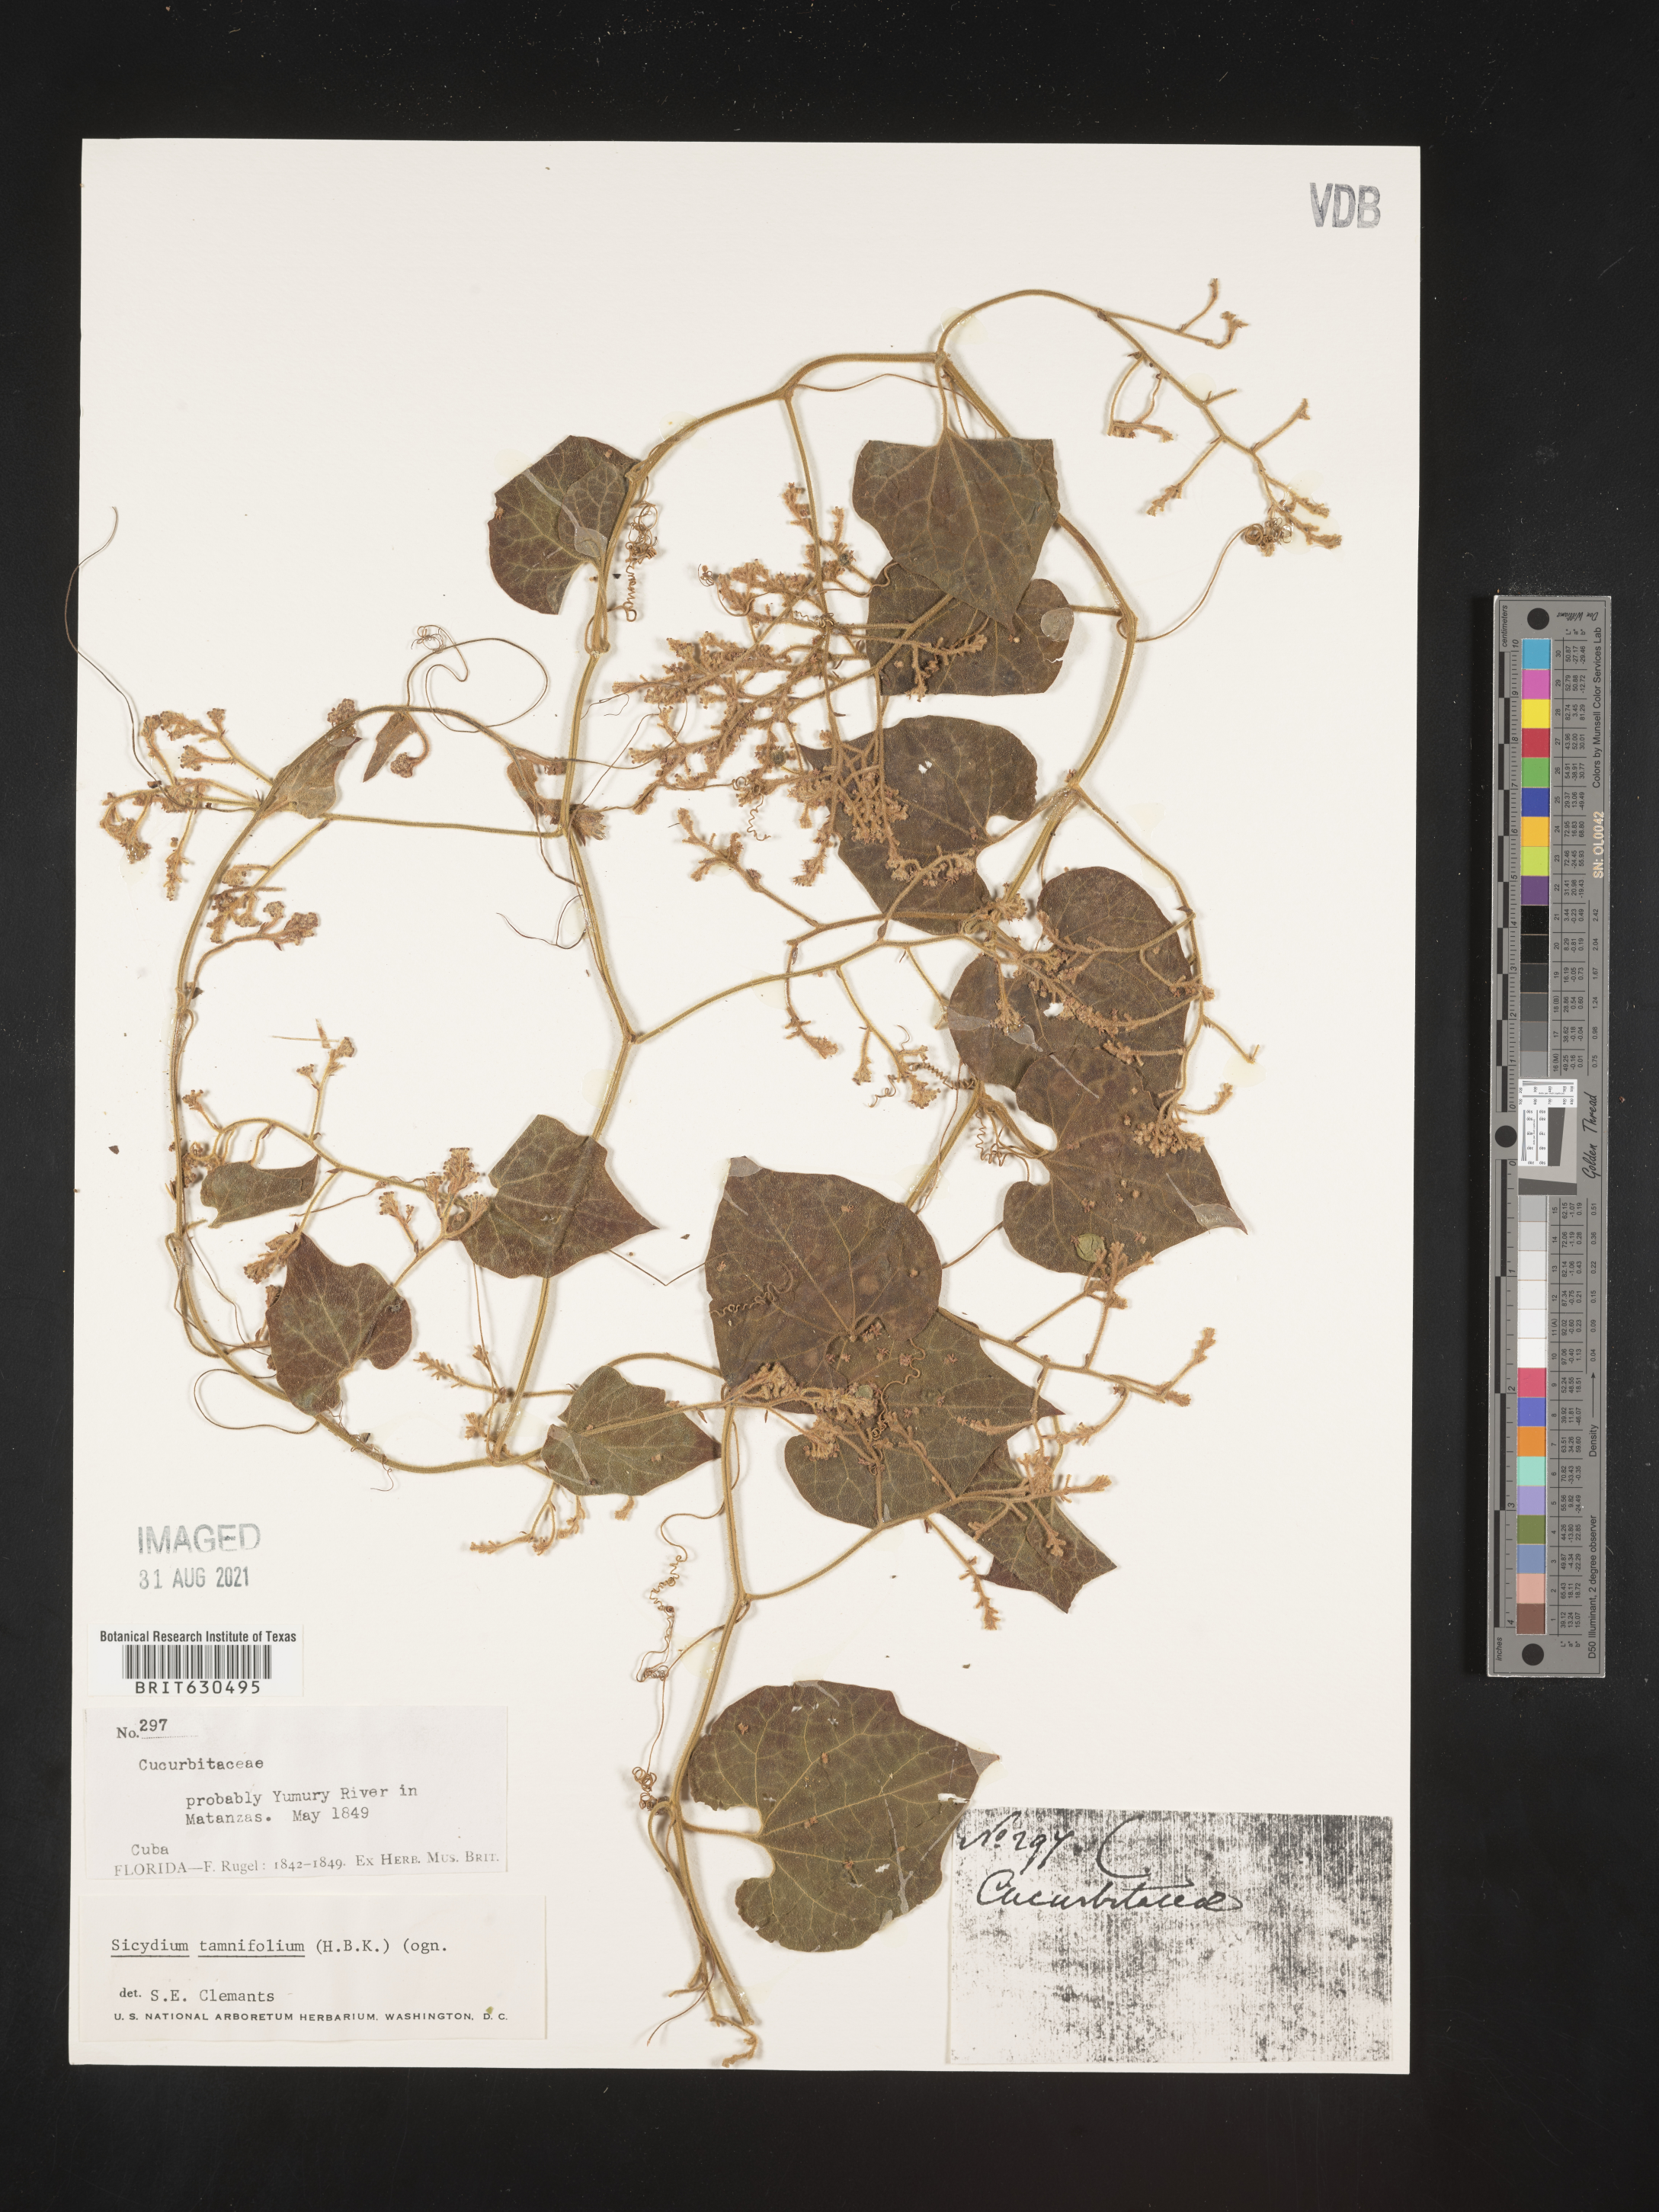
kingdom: Plantae
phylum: Tracheophyta
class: Magnoliopsida
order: Cucurbitales
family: Cucurbitaceae
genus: Sicydium
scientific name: Sicydium tamnifolium
